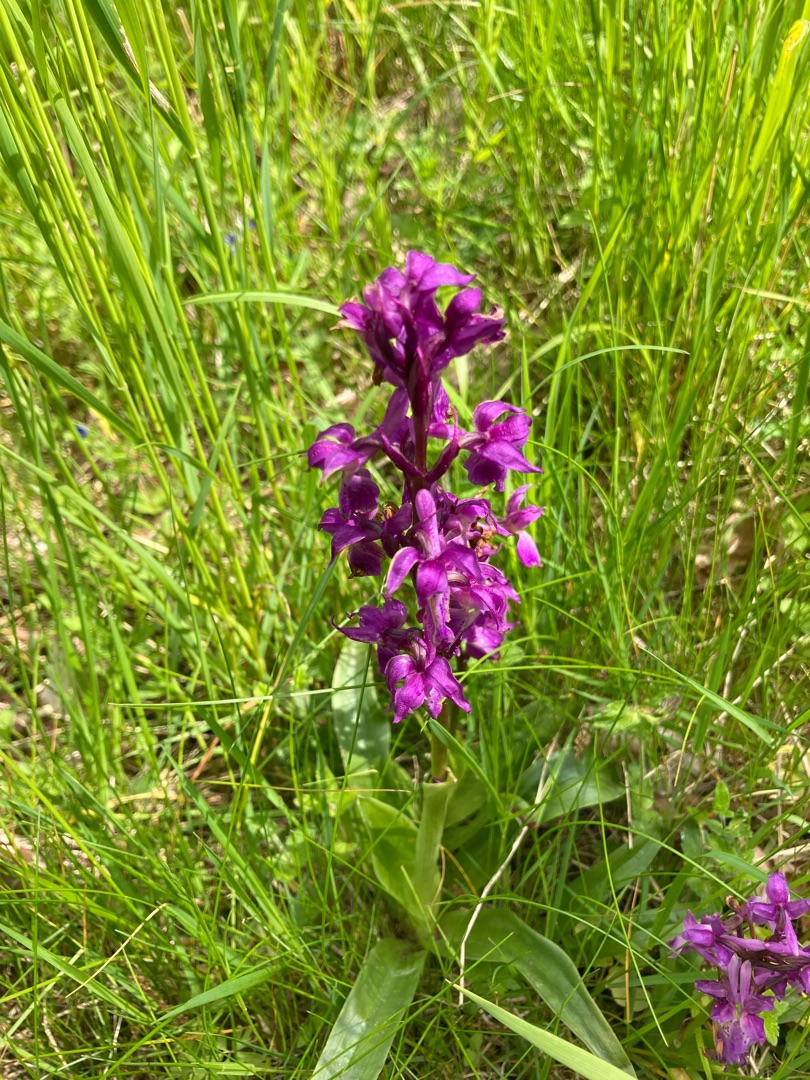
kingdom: Plantae
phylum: Tracheophyta
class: Liliopsida
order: Asparagales
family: Orchidaceae
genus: Orchis
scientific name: Orchis mascula
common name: Tyndakset gøgeurt
